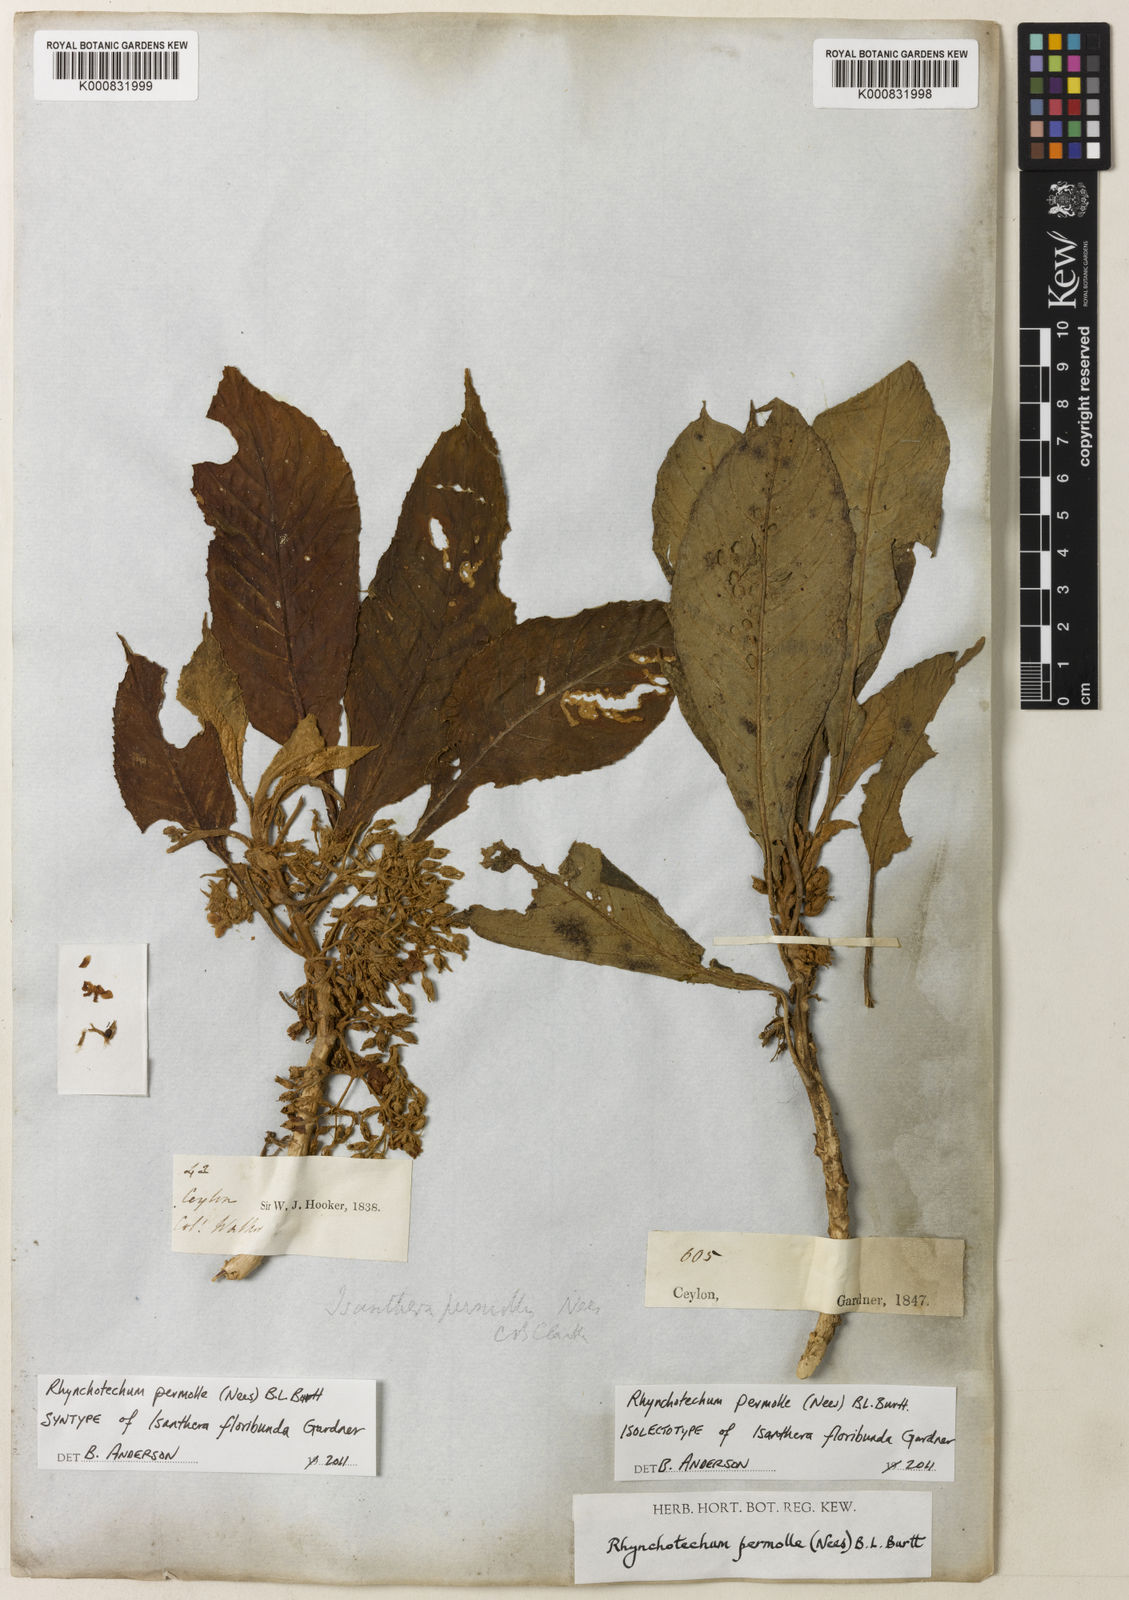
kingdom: Plantae
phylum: Tracheophyta
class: Magnoliopsida
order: Lamiales
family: Gesneriaceae
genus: Rhynchotechum
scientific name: Rhynchotechum permolle
